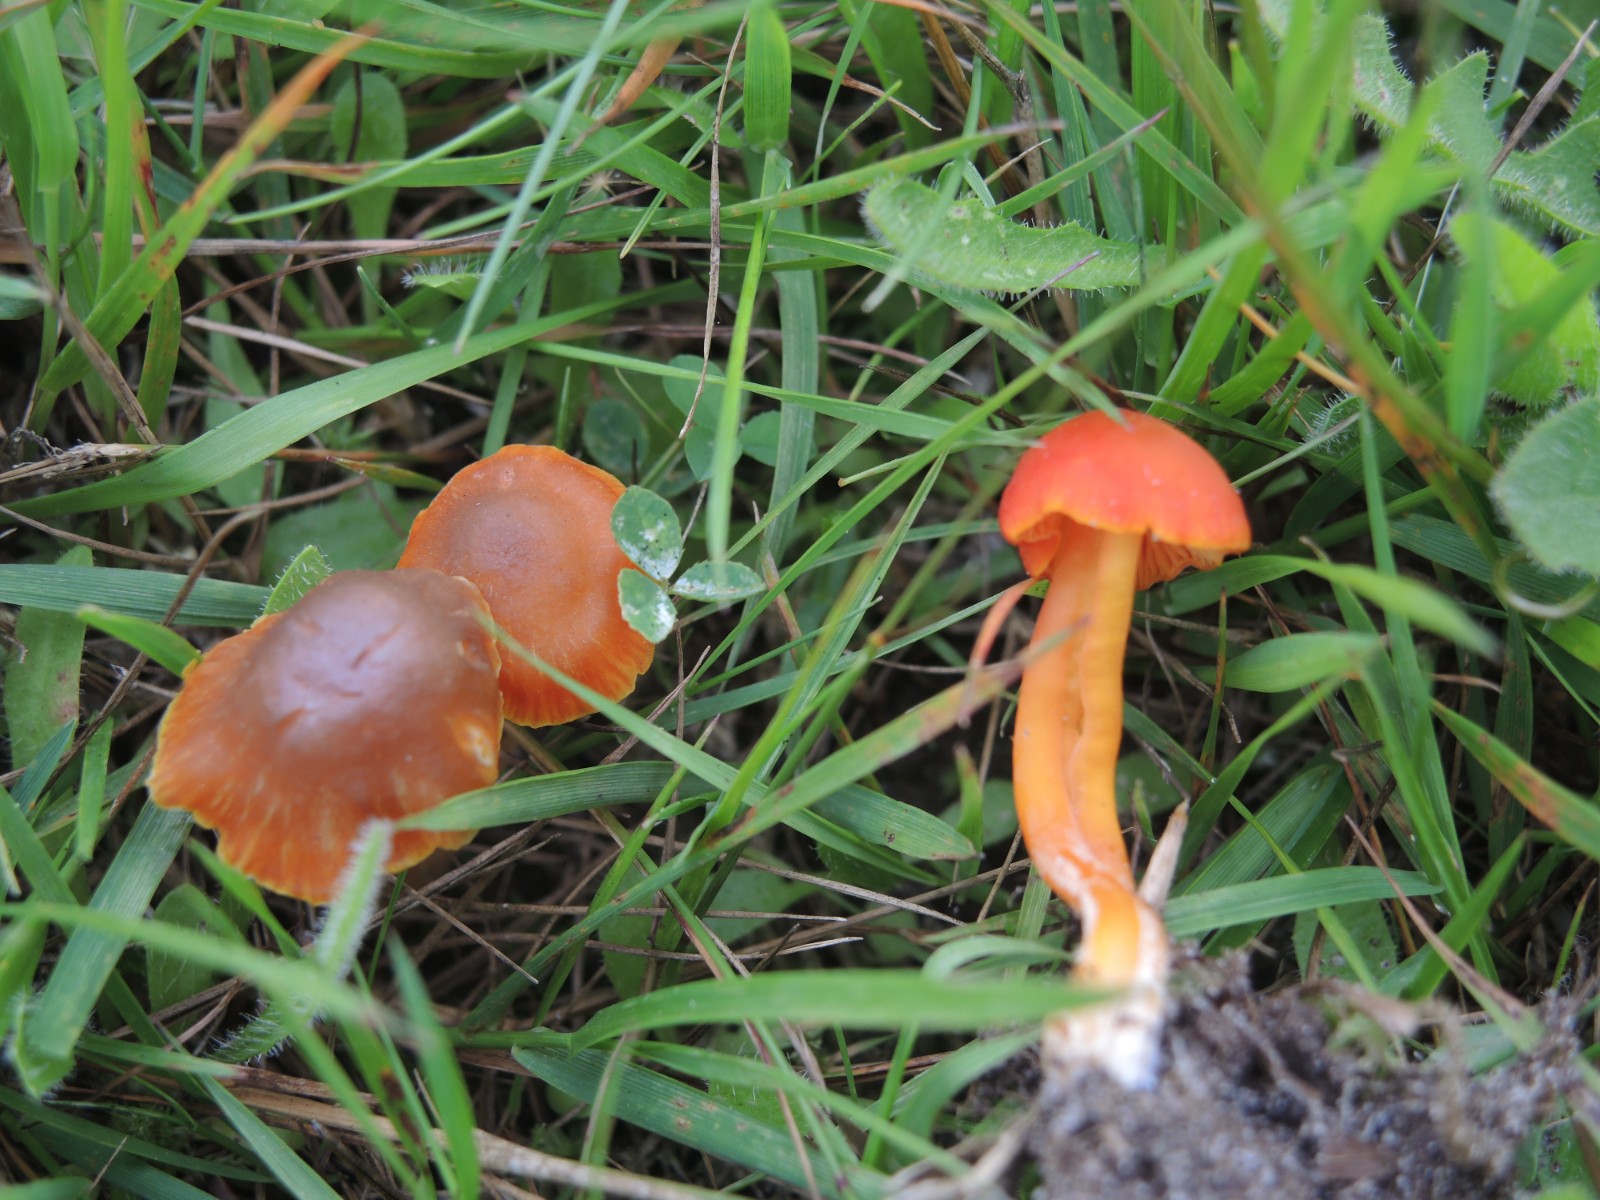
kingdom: Fungi
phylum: Basidiomycota
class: Agaricomycetes
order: Agaricales
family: Hygrophoraceae
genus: Hygrocybe
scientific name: Hygrocybe phaeococcinea
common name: sortdugget vokshat
